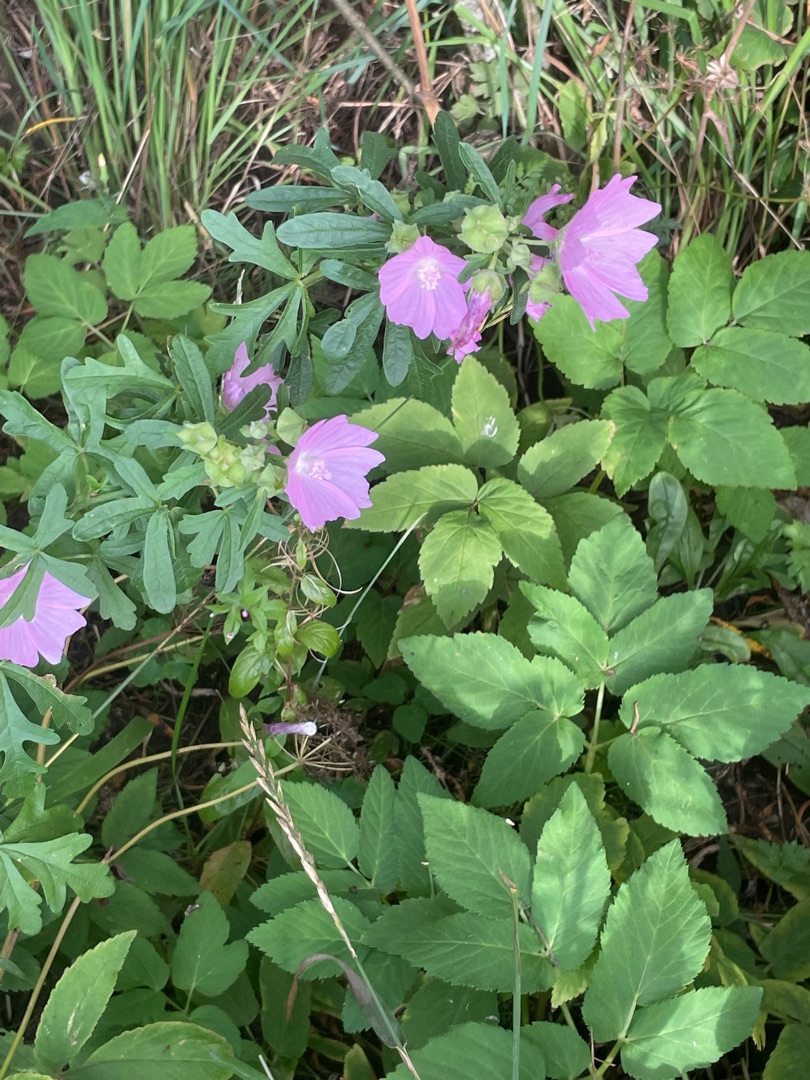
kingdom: Plantae
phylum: Tracheophyta
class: Magnoliopsida
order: Malvales
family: Malvaceae
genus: Malva
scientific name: Malva alcea
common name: Rosen-katost
